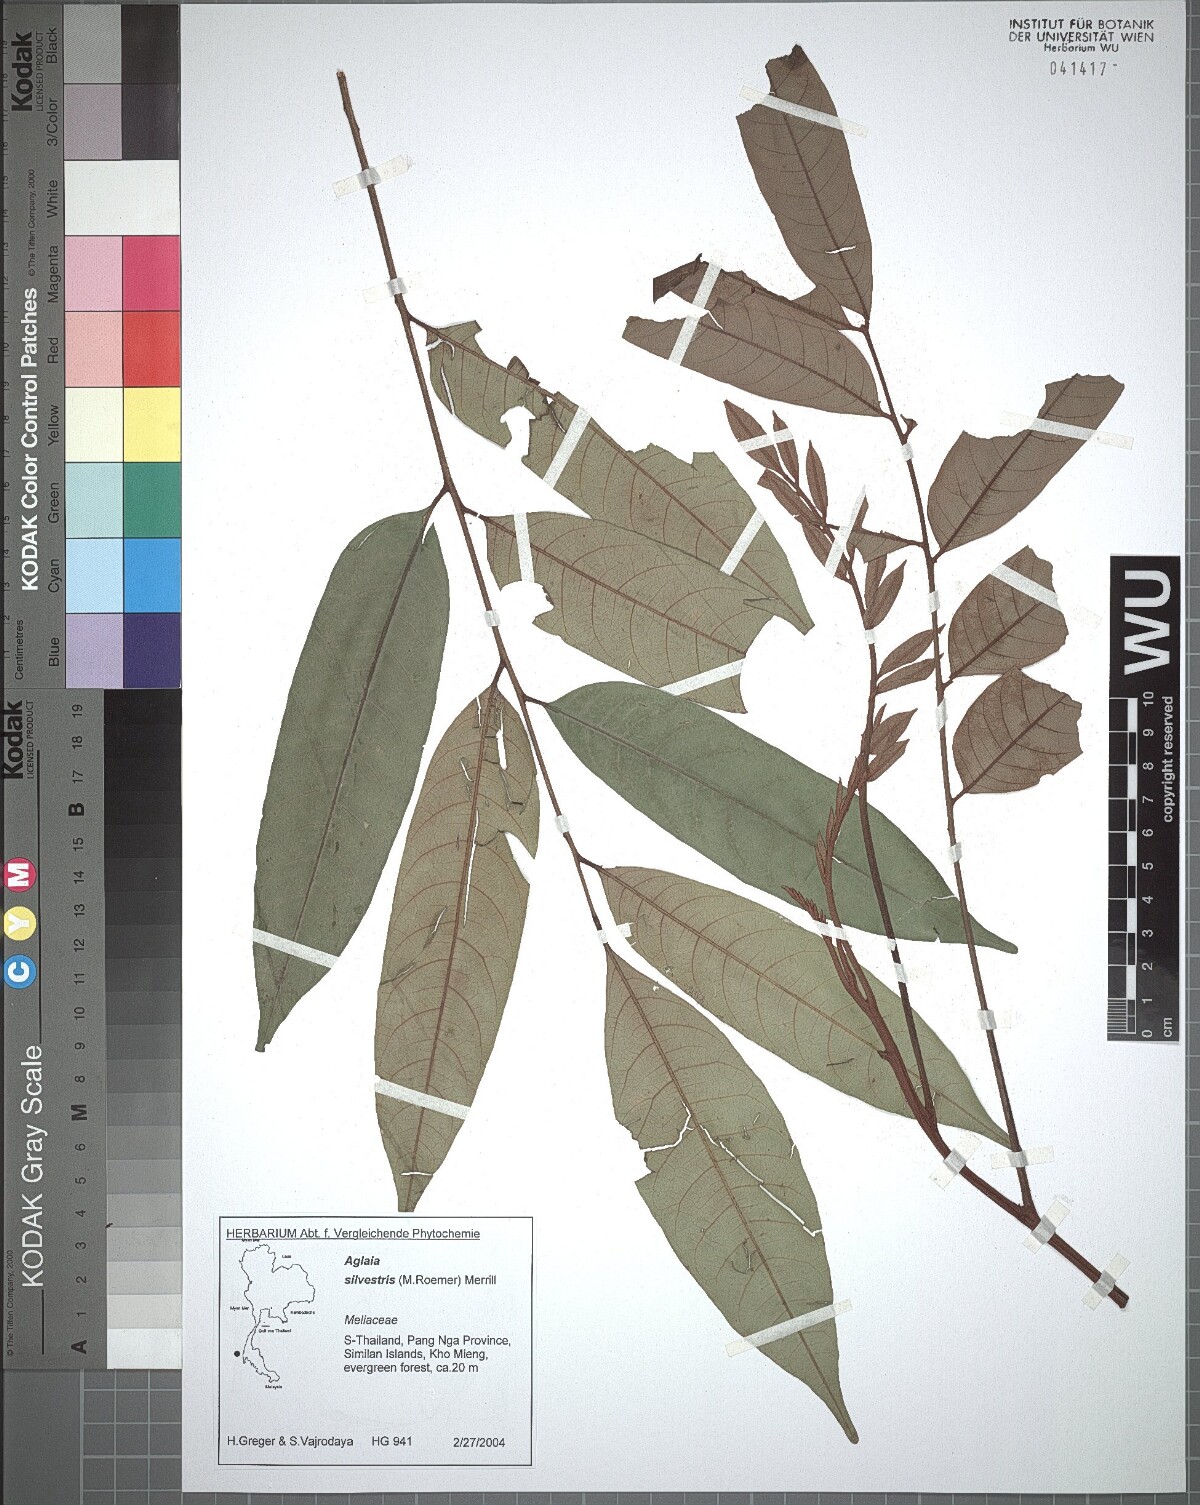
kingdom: Plantae
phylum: Tracheophyta
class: Magnoliopsida
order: Sapindales
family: Meliaceae
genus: Aglaia
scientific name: Aglaia silvestris
